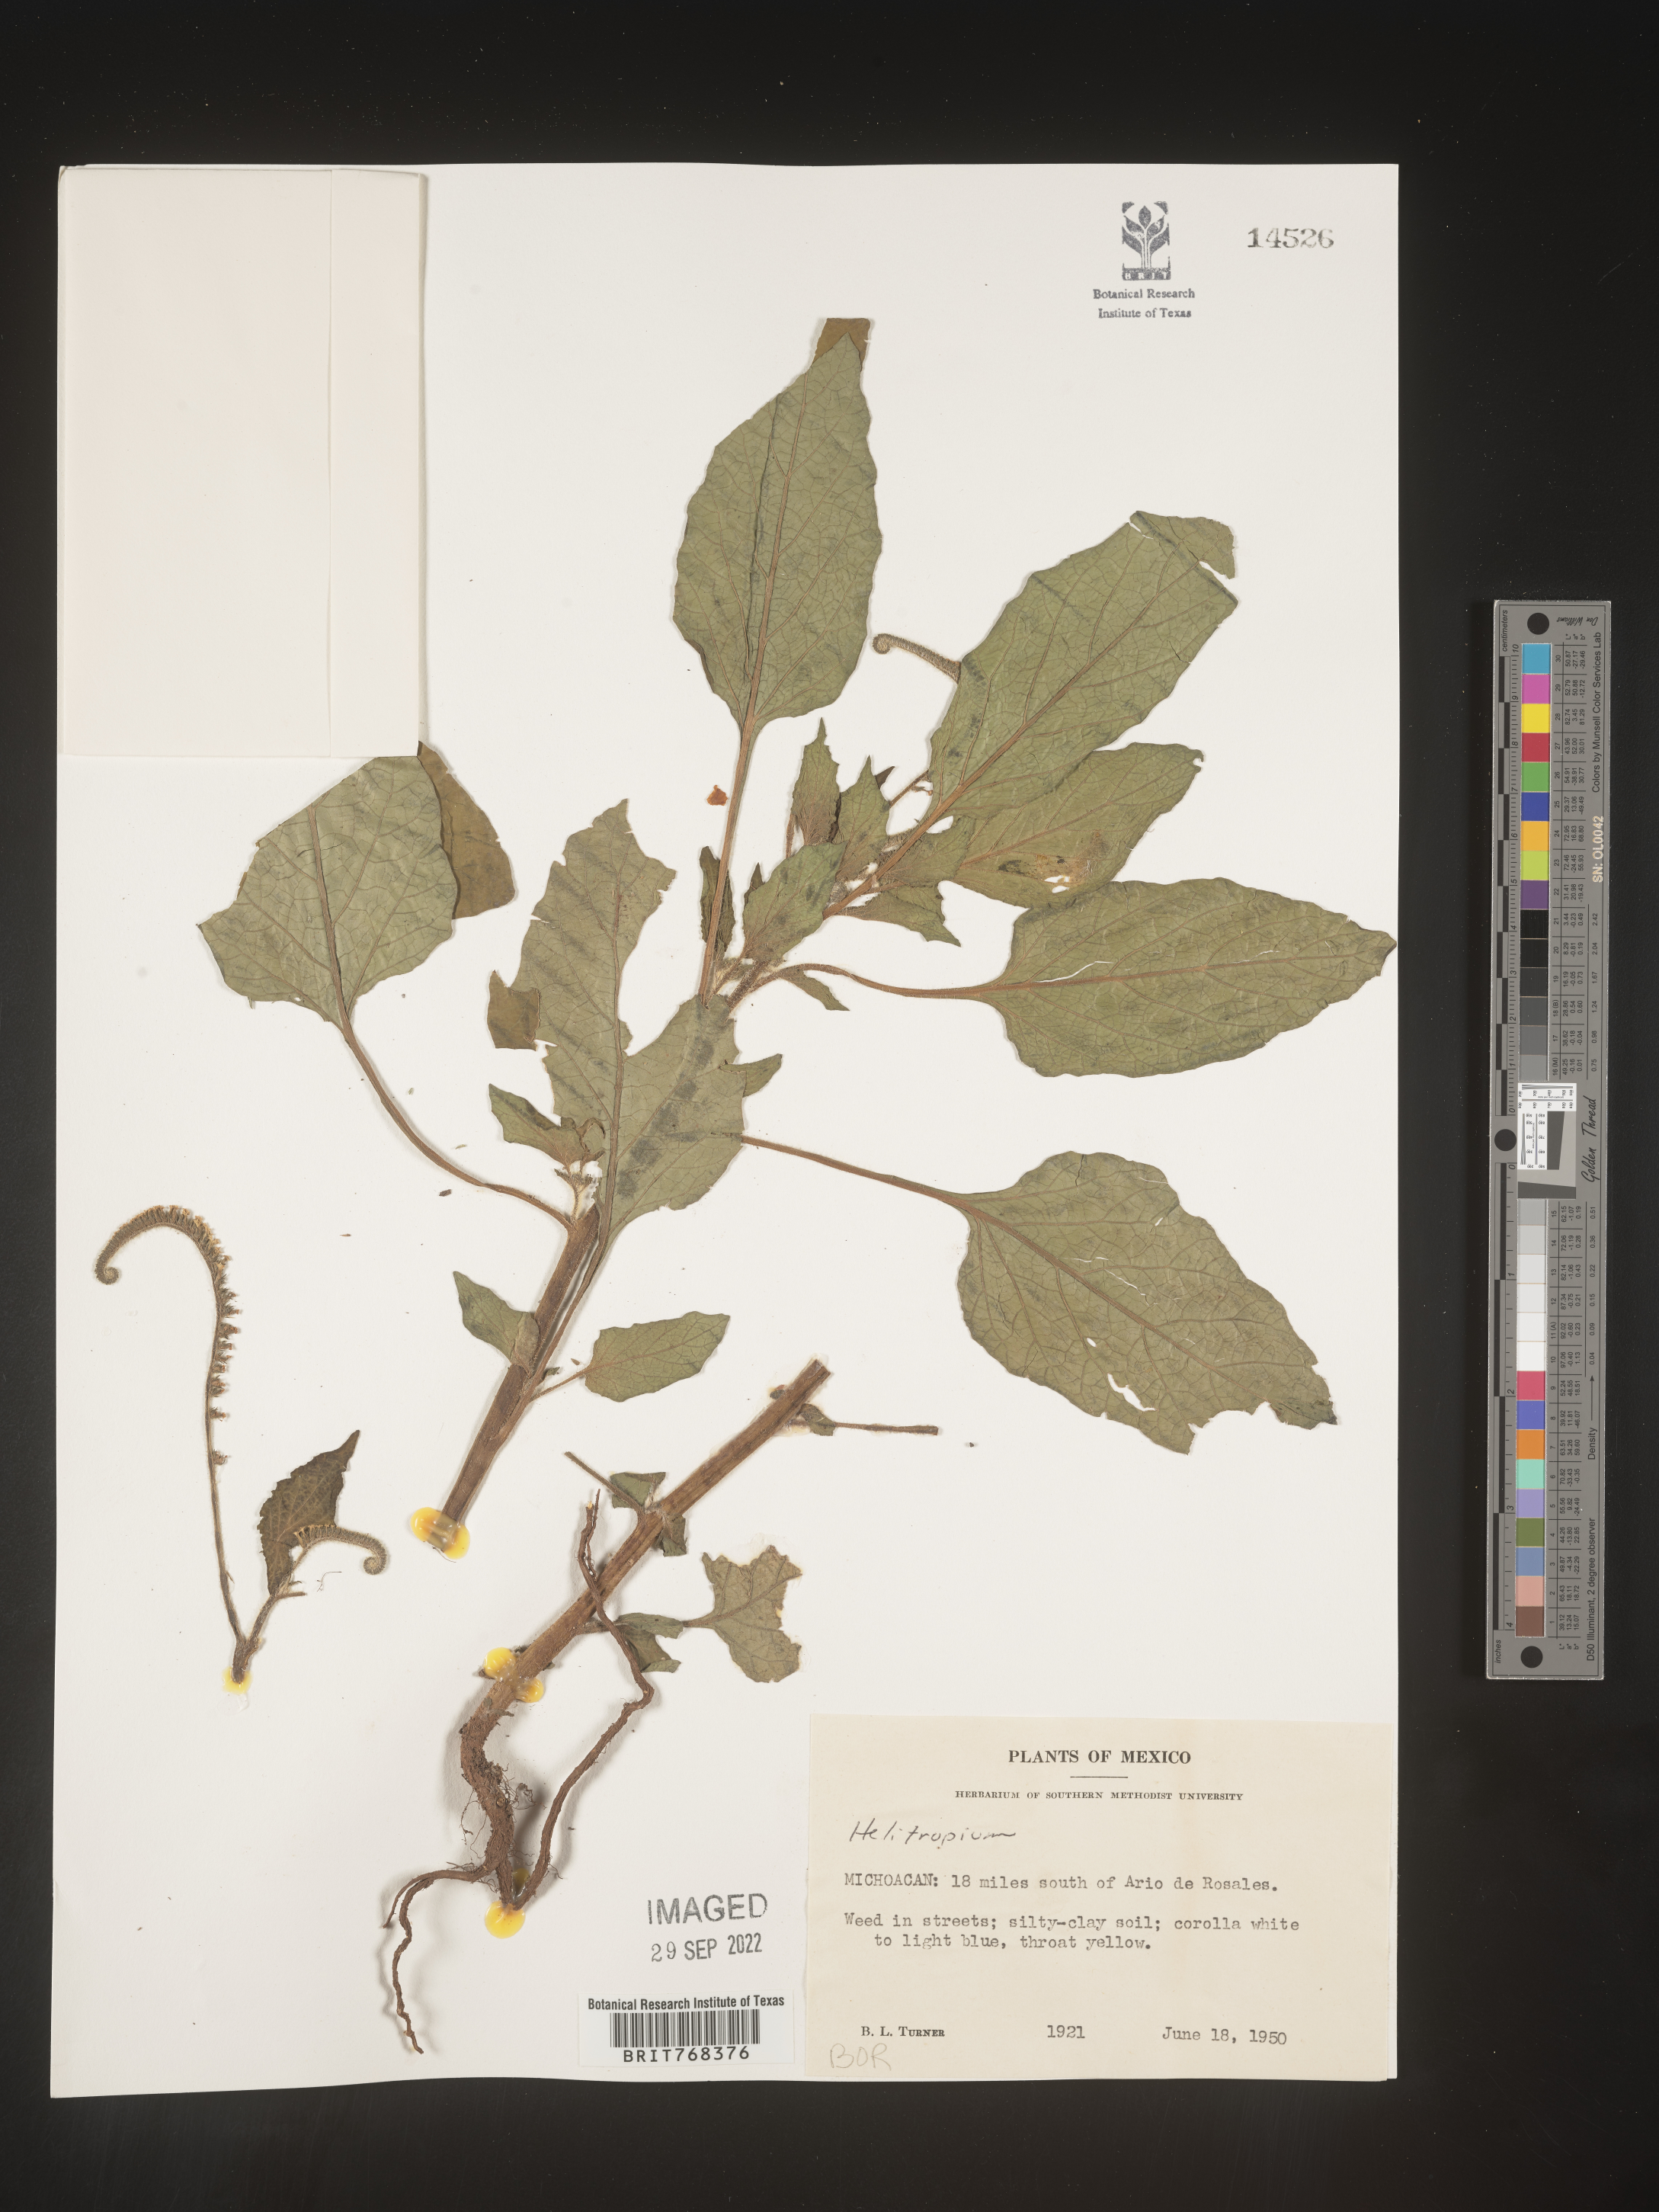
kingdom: Plantae
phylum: Tracheophyta
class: Magnoliopsida
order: Boraginales
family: Heliotropiaceae
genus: Heliotropium
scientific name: Heliotropium
